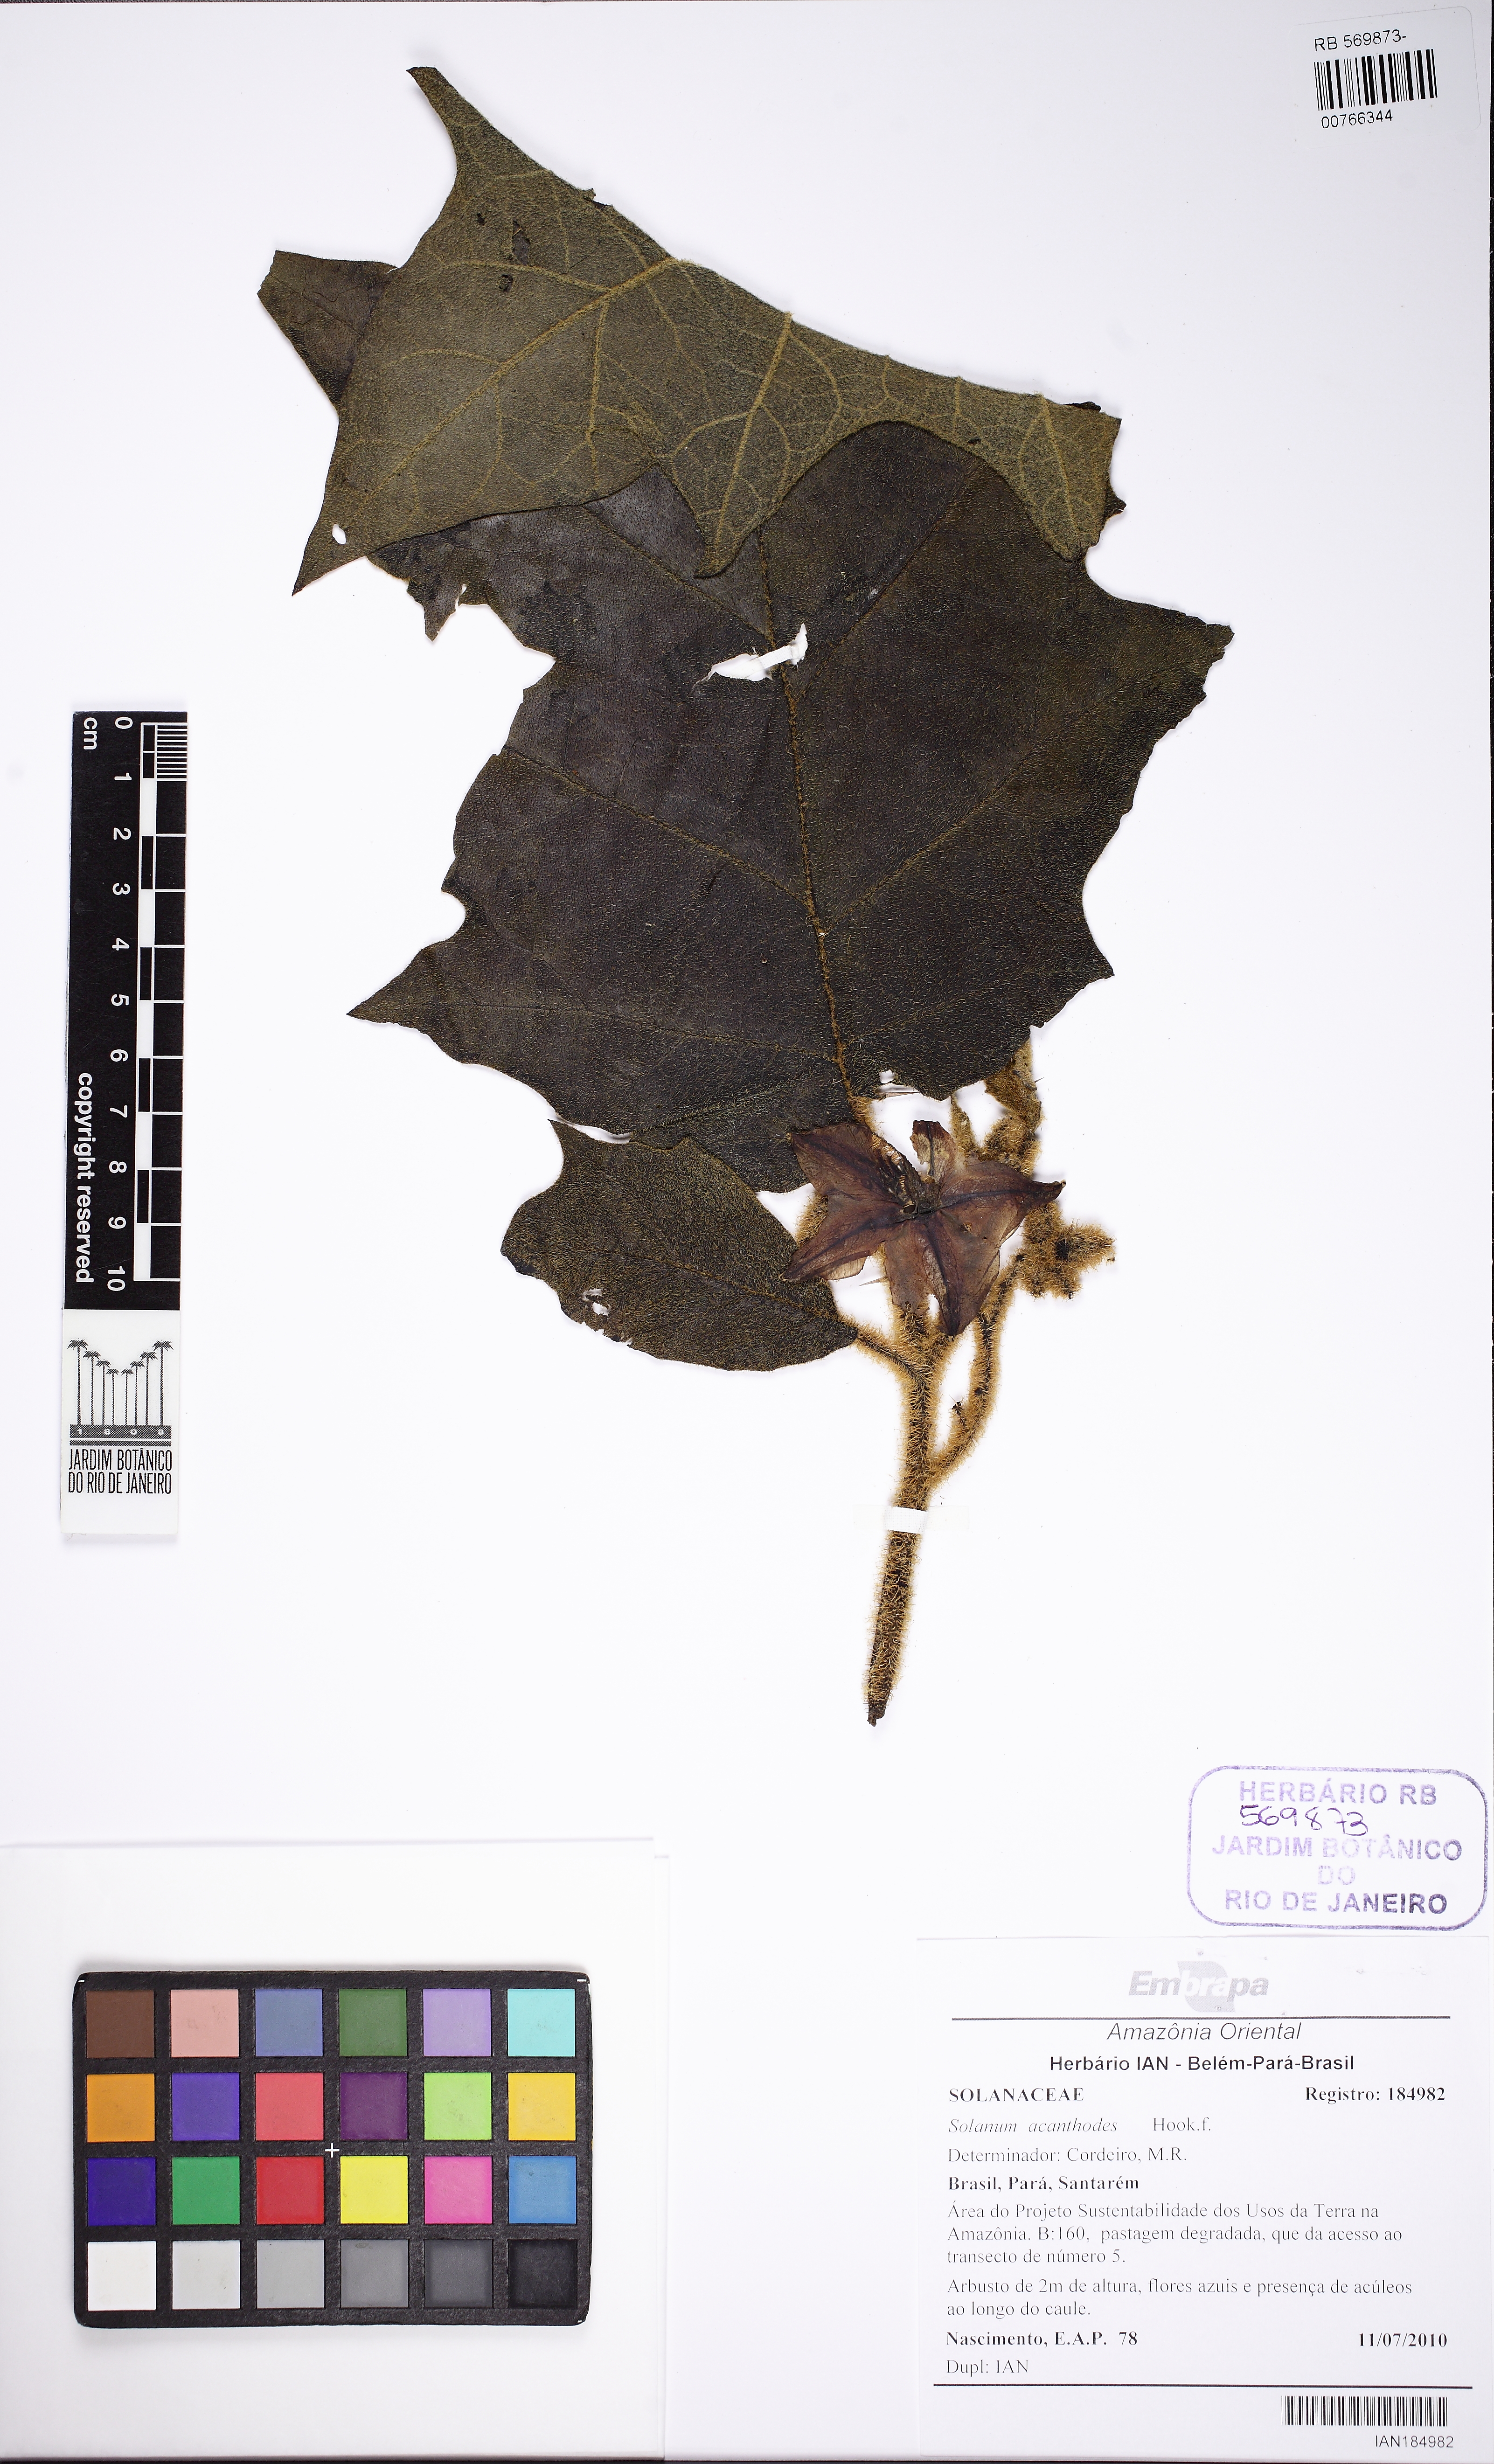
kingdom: Plantae
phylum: Tracheophyta
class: Magnoliopsida
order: Solanales
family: Solanaceae
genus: Solanum
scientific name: Solanum vanheurckii
